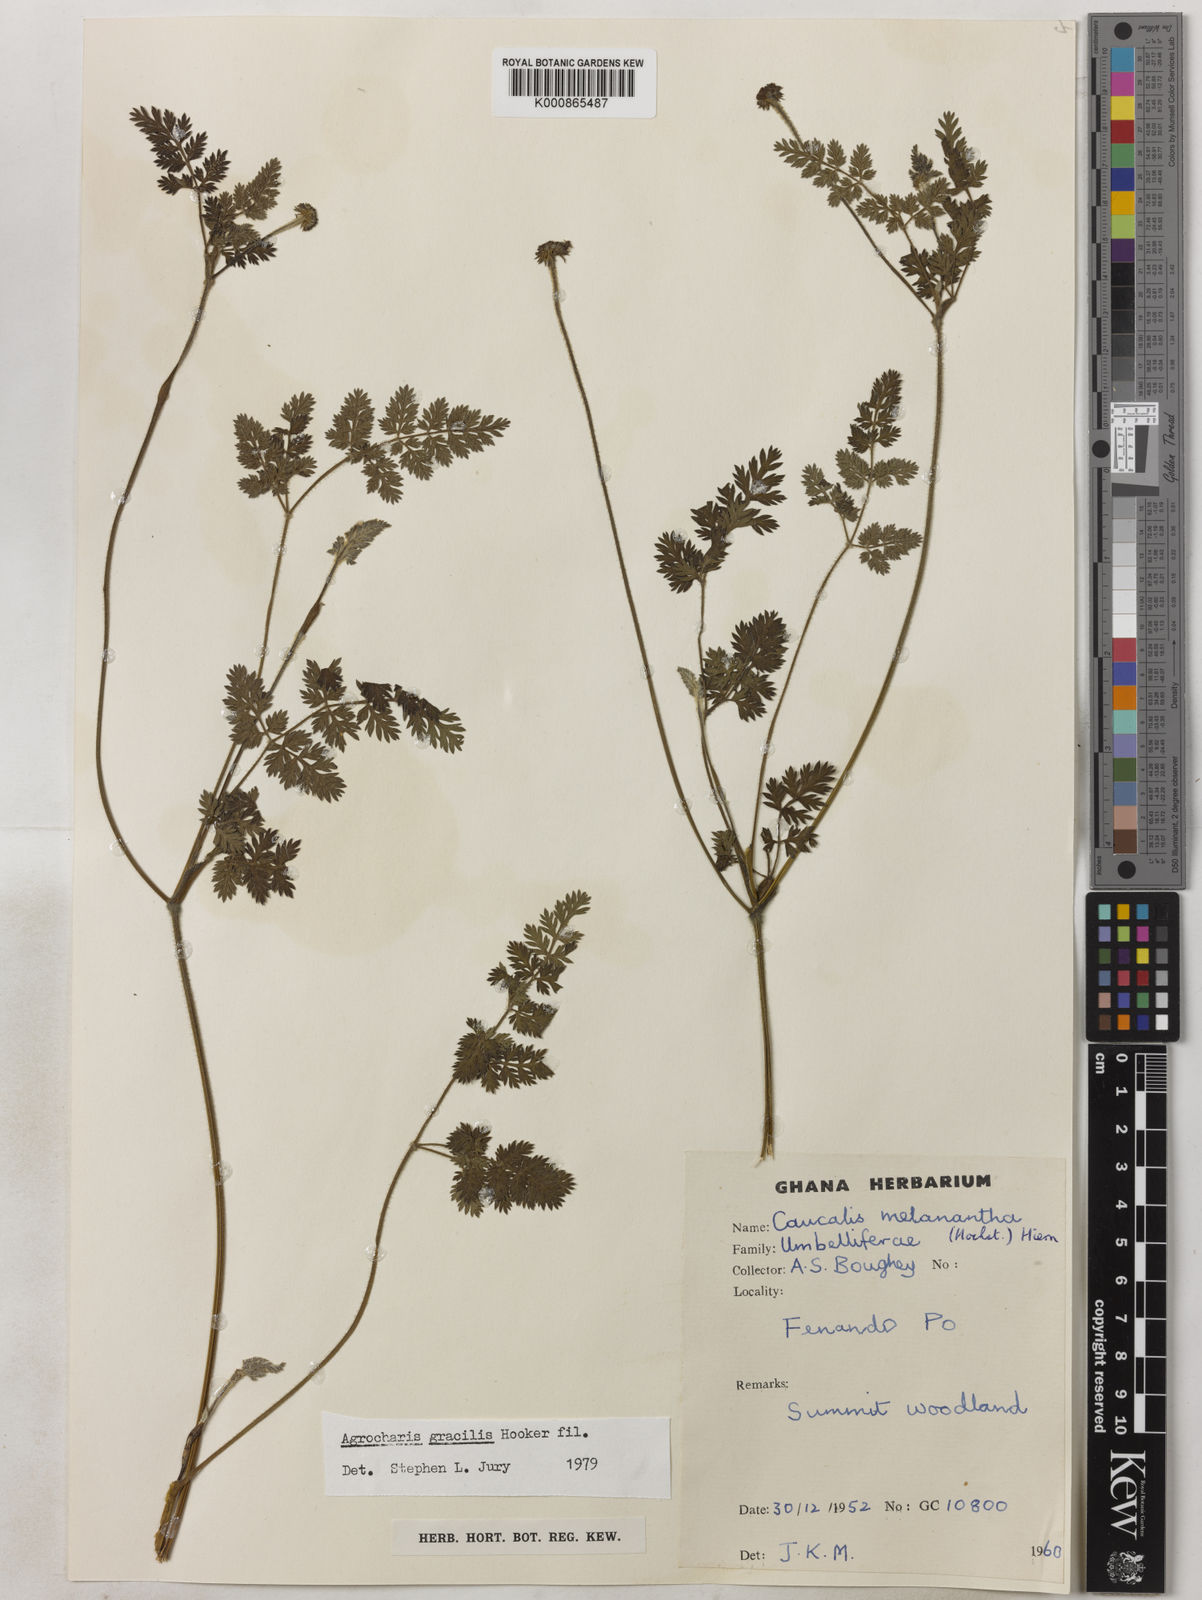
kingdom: Plantae
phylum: Tracheophyta
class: Magnoliopsida
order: Apiales
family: Apiaceae
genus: Daucus
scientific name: Daucus melananthus
